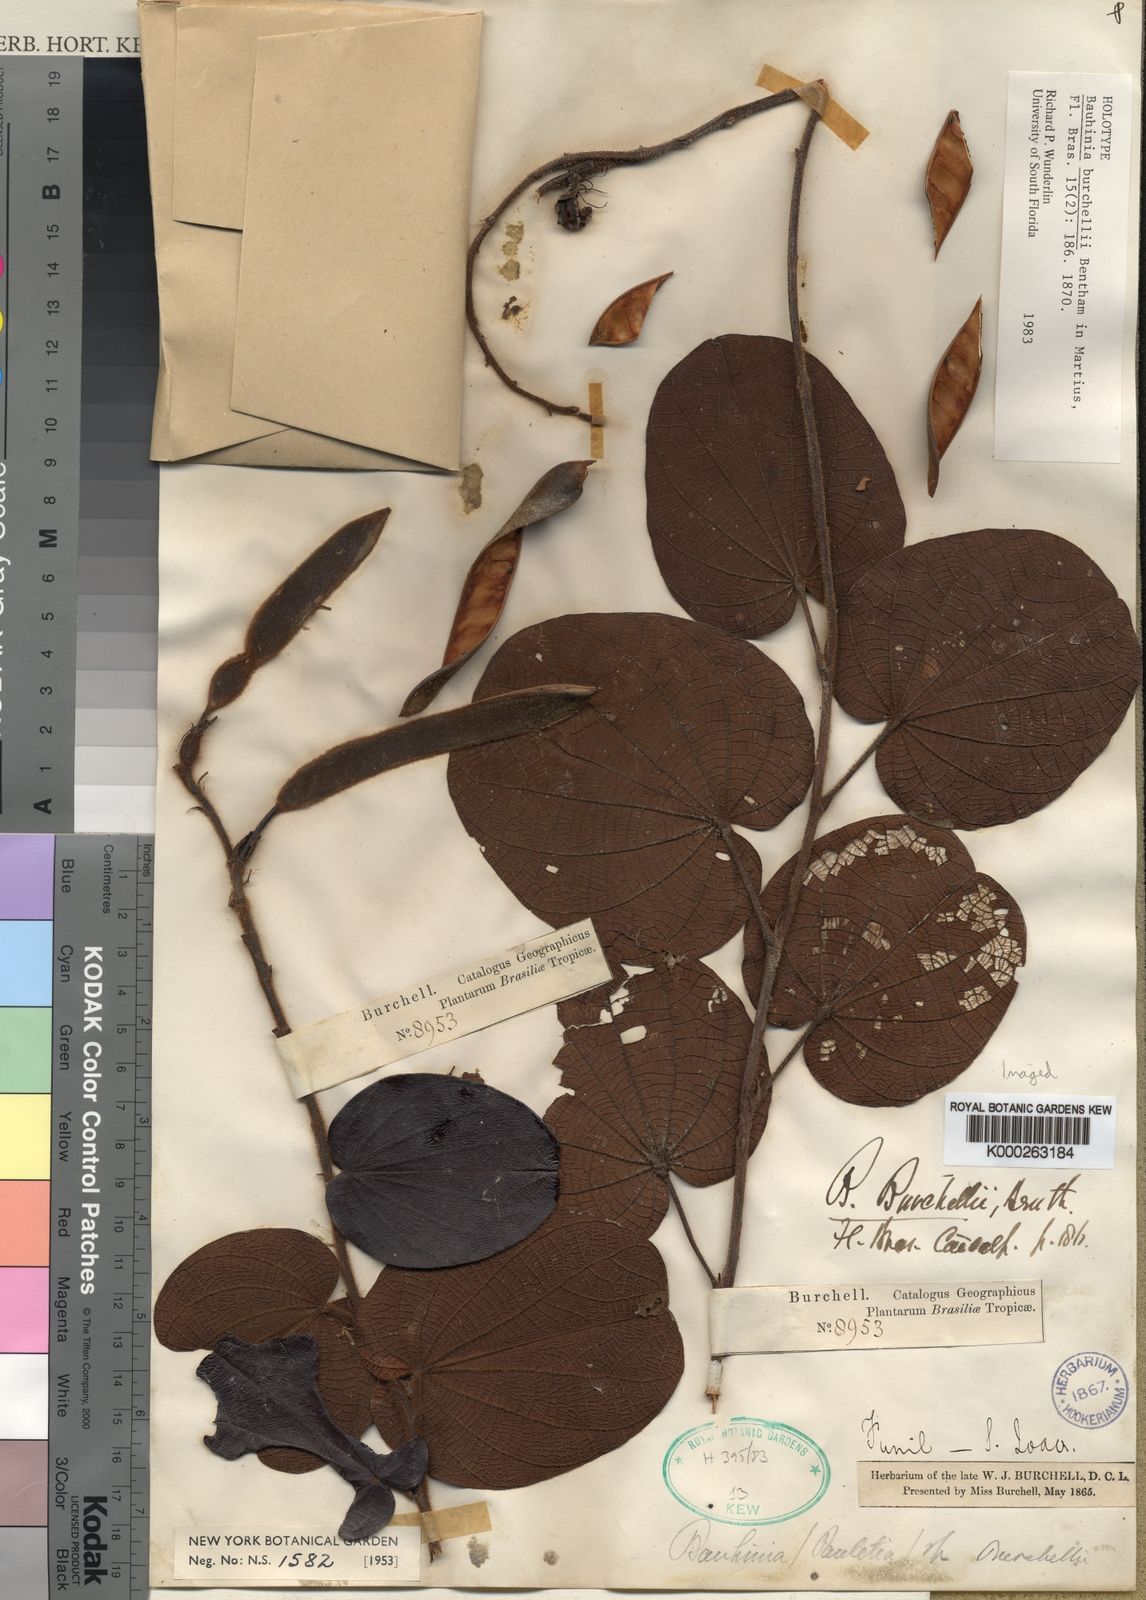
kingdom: Plantae
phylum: Tracheophyta
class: Magnoliopsida
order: Fabales
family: Fabaceae
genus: Bauhinia
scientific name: Bauhinia burchellii
